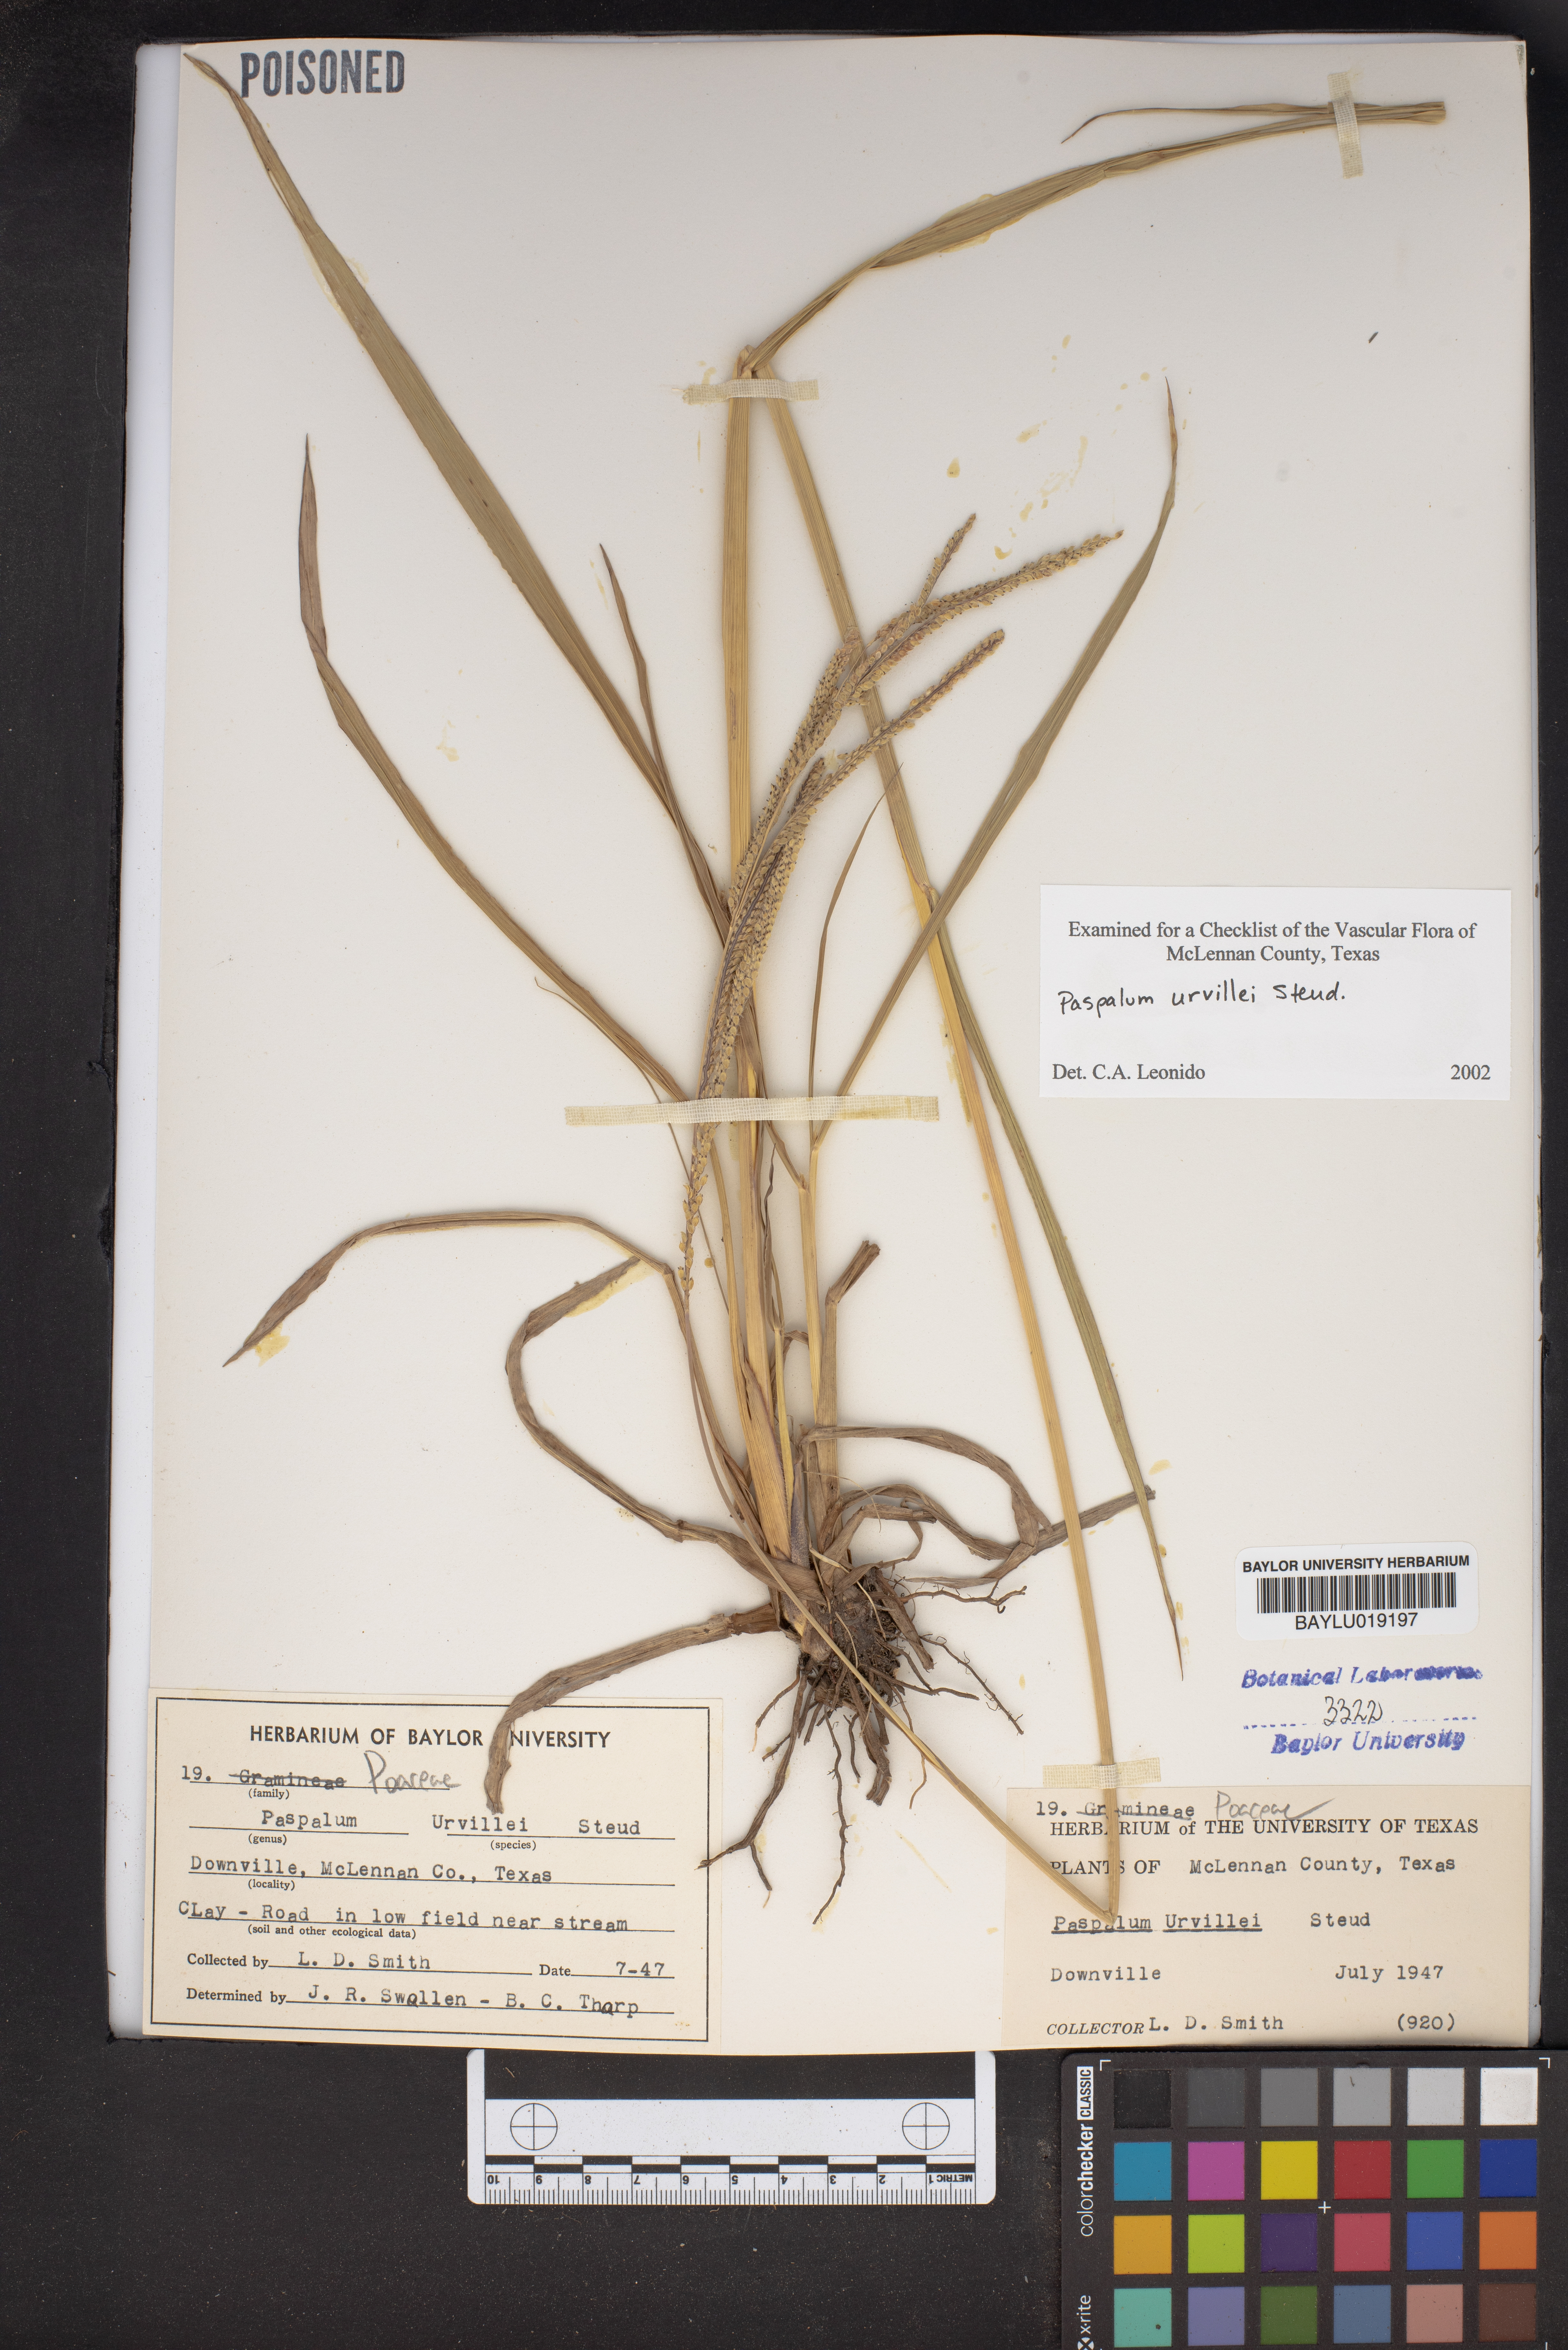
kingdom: Plantae
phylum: Tracheophyta
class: Liliopsida
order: Poales
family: Poaceae
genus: Paspalum
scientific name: Paspalum urvillei
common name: Vasey's grass
